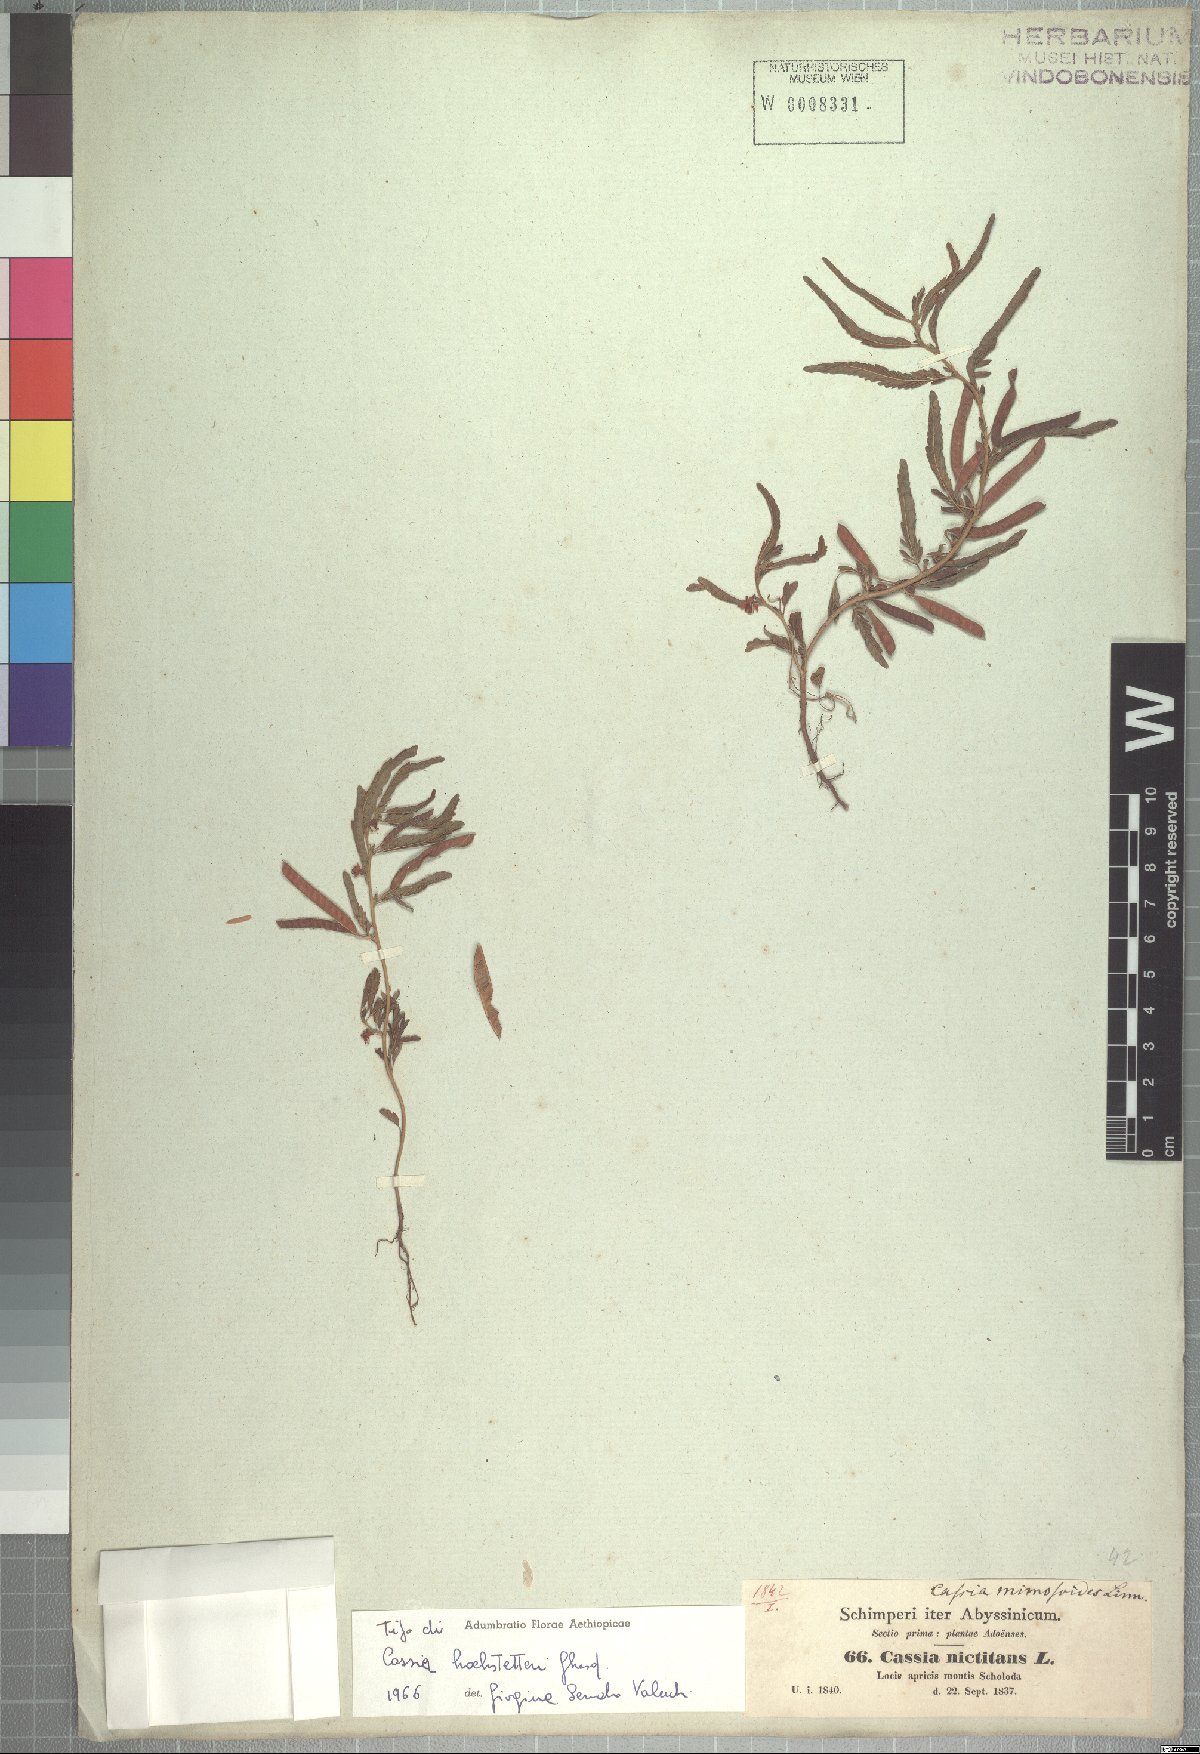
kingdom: Plantae
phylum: Tracheophyta
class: Magnoliopsida
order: Fabales
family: Fabaceae
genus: Chamaecrista
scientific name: Chamaecrista
